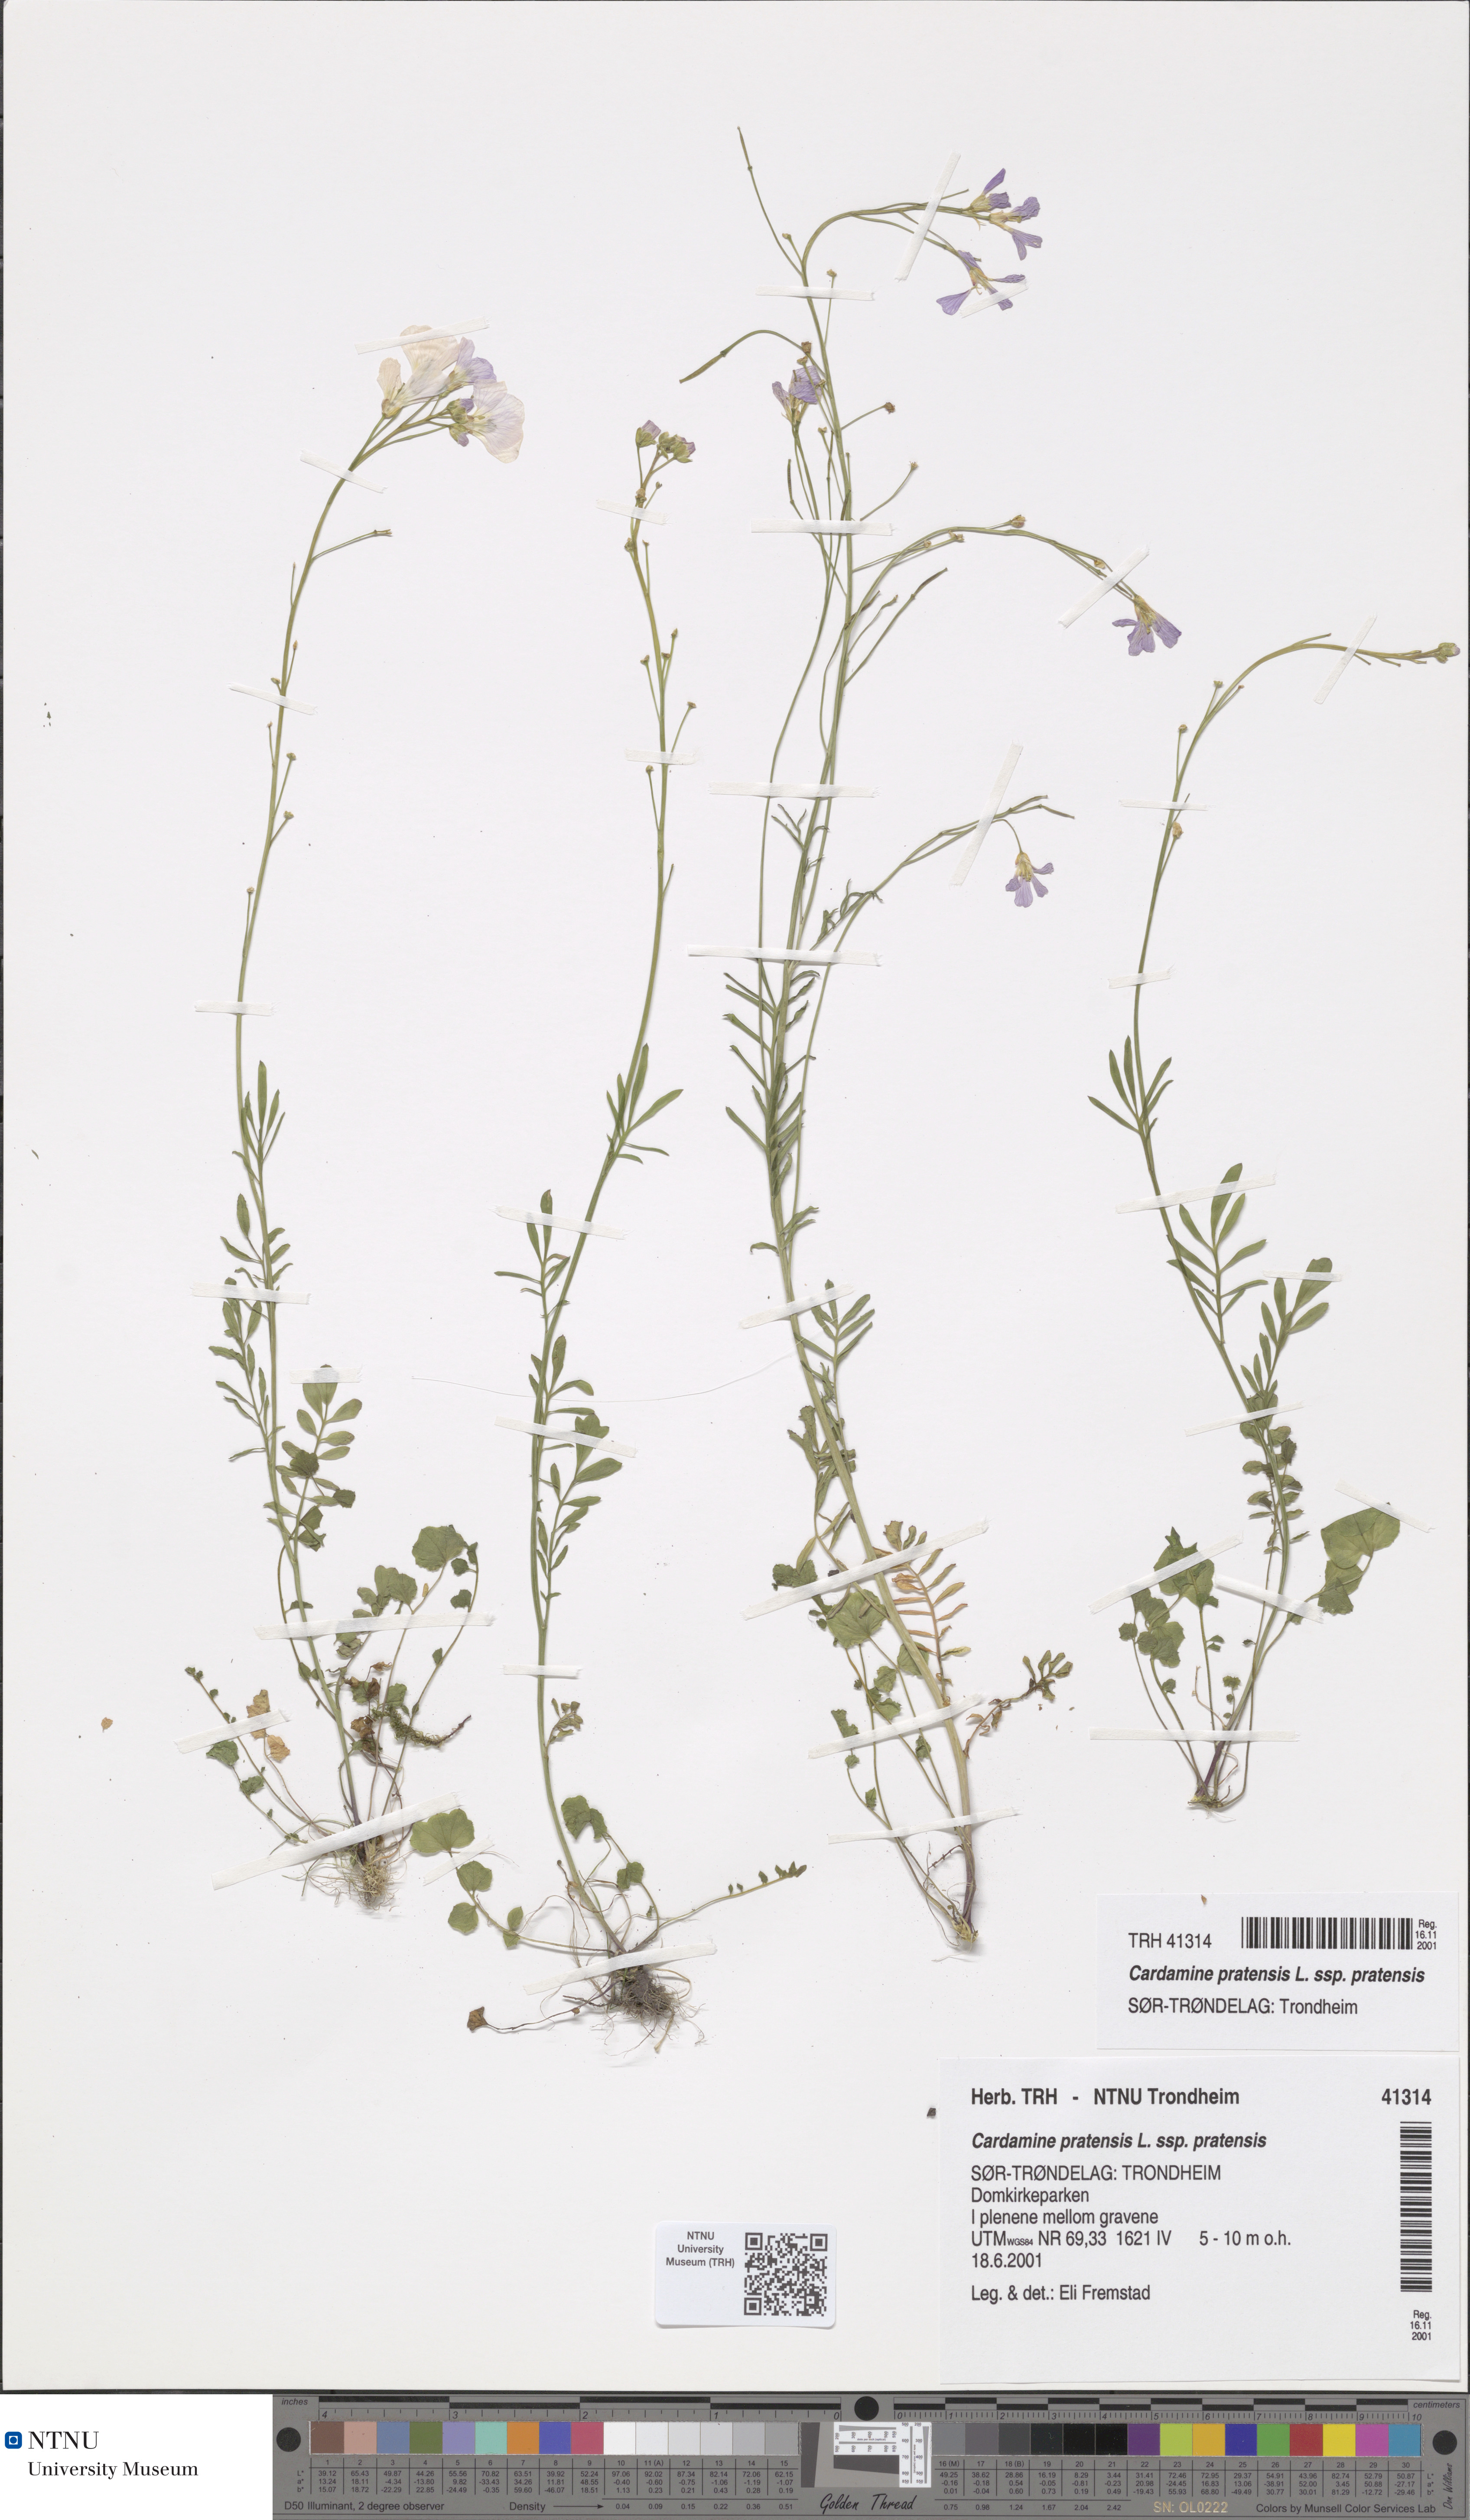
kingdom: Plantae
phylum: Tracheophyta
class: Magnoliopsida
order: Brassicales
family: Brassicaceae
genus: Cardamine
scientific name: Cardamine pratensis
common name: Cuckoo flower
